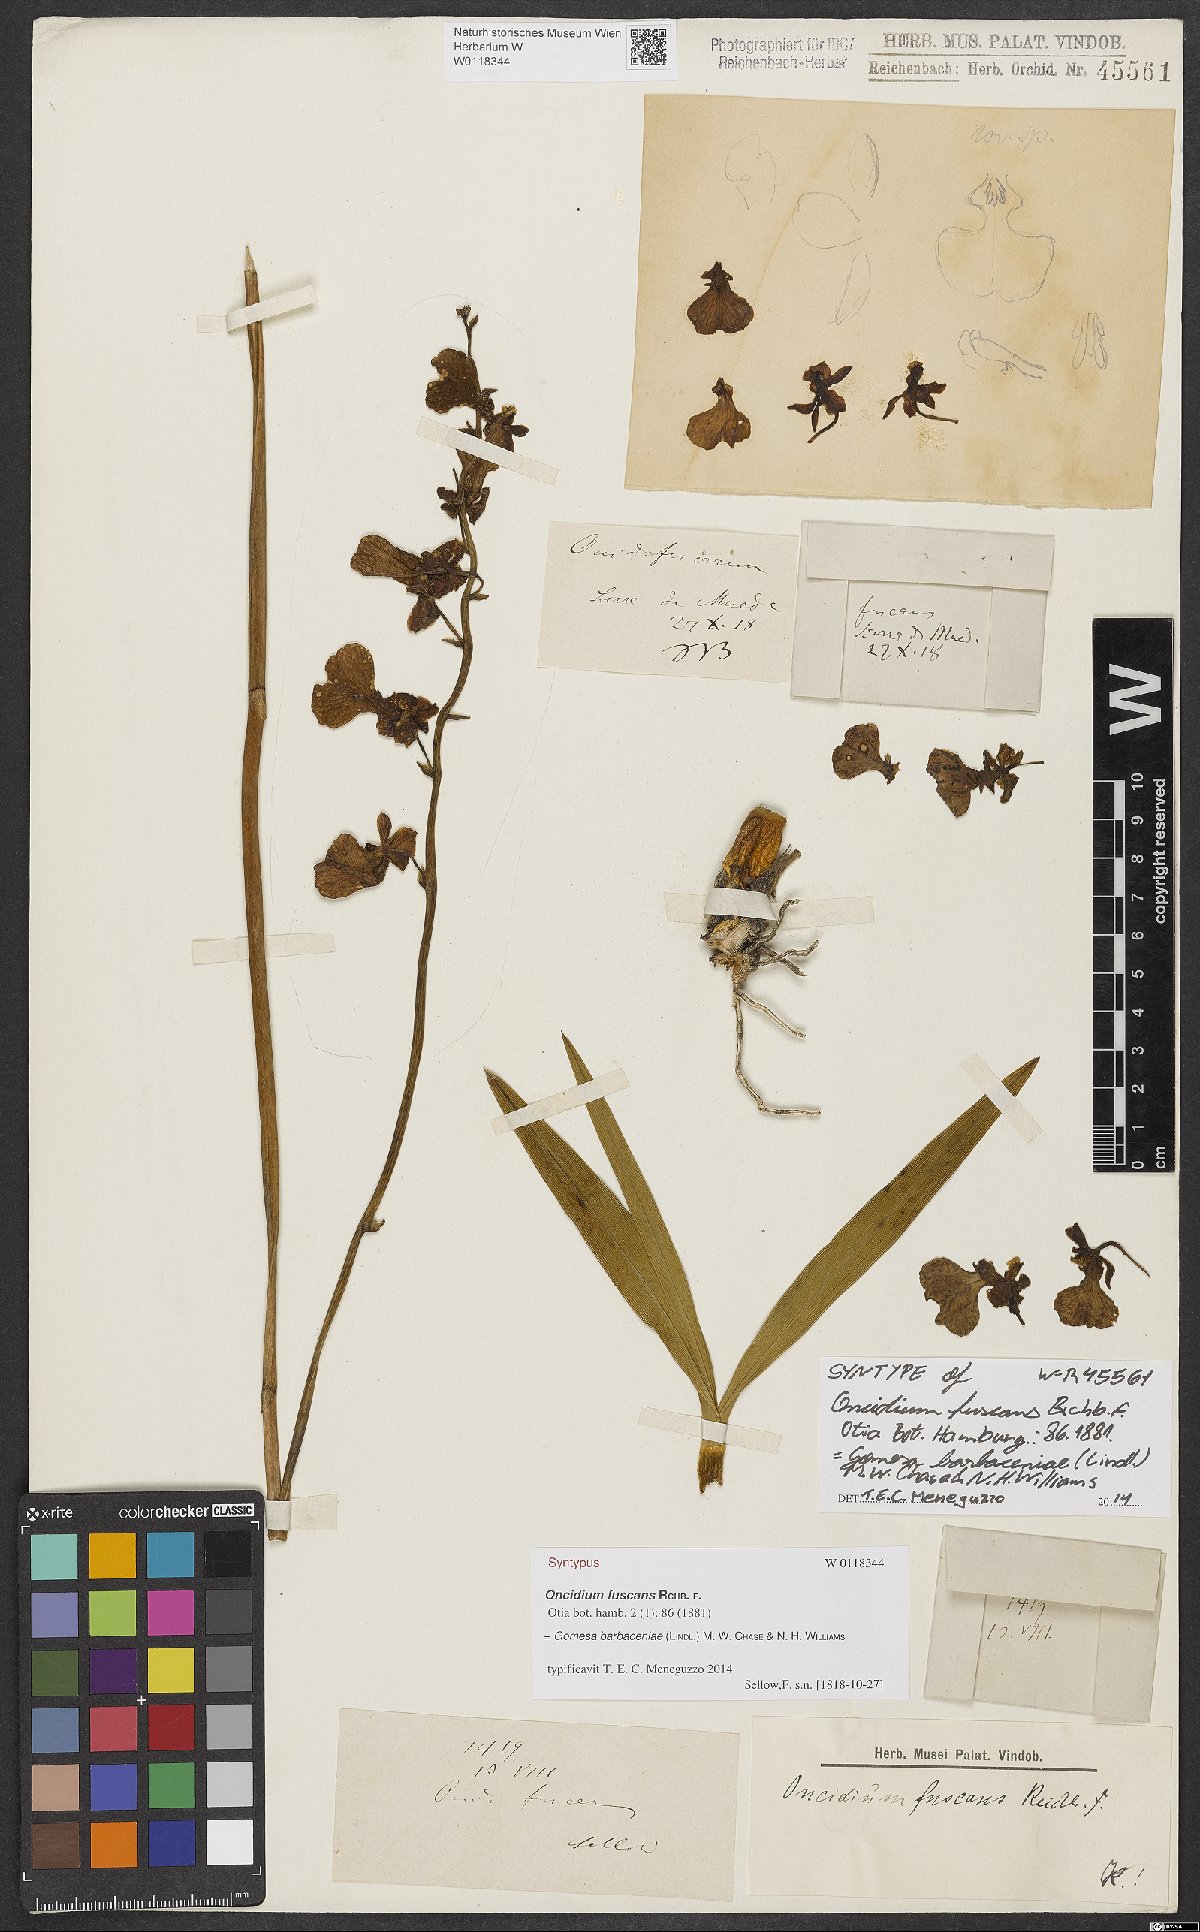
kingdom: Plantae
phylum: Tracheophyta
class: Liliopsida
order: Asparagales
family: Orchidaceae
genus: Gomesa
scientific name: Gomesa fuscans
